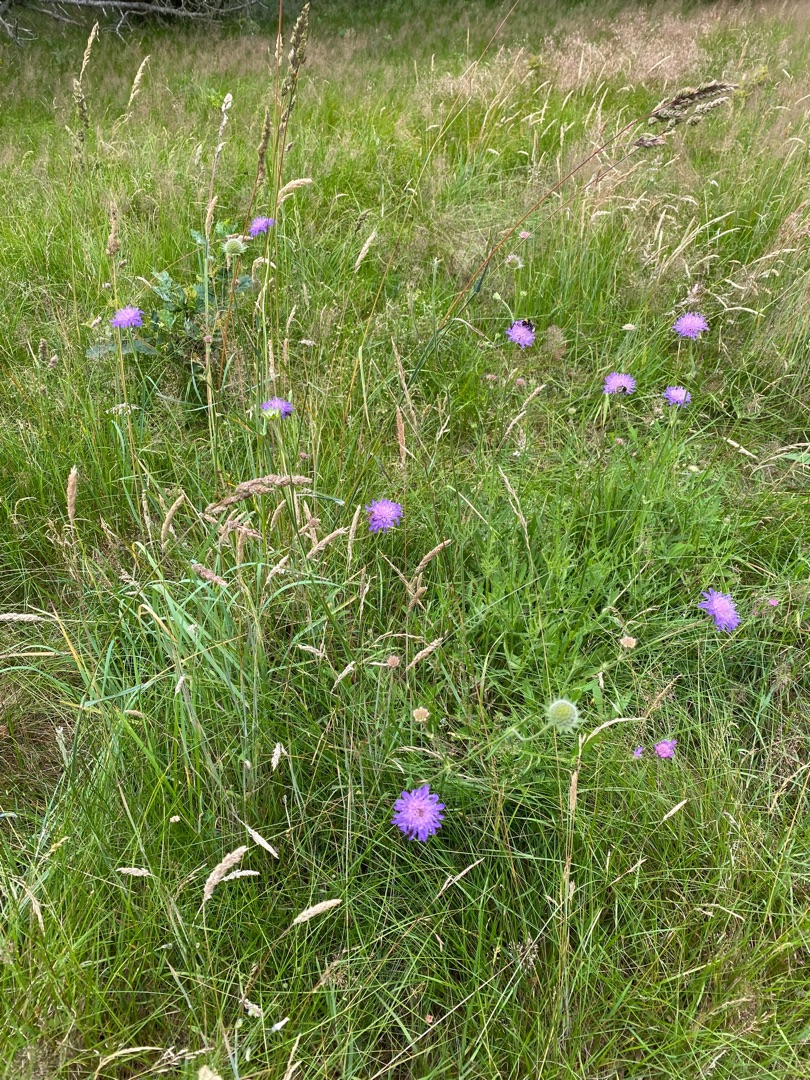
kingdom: Plantae
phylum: Tracheophyta
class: Magnoliopsida
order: Dipsacales
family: Caprifoliaceae
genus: Knautia
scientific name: Knautia arvensis
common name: Blåhat
